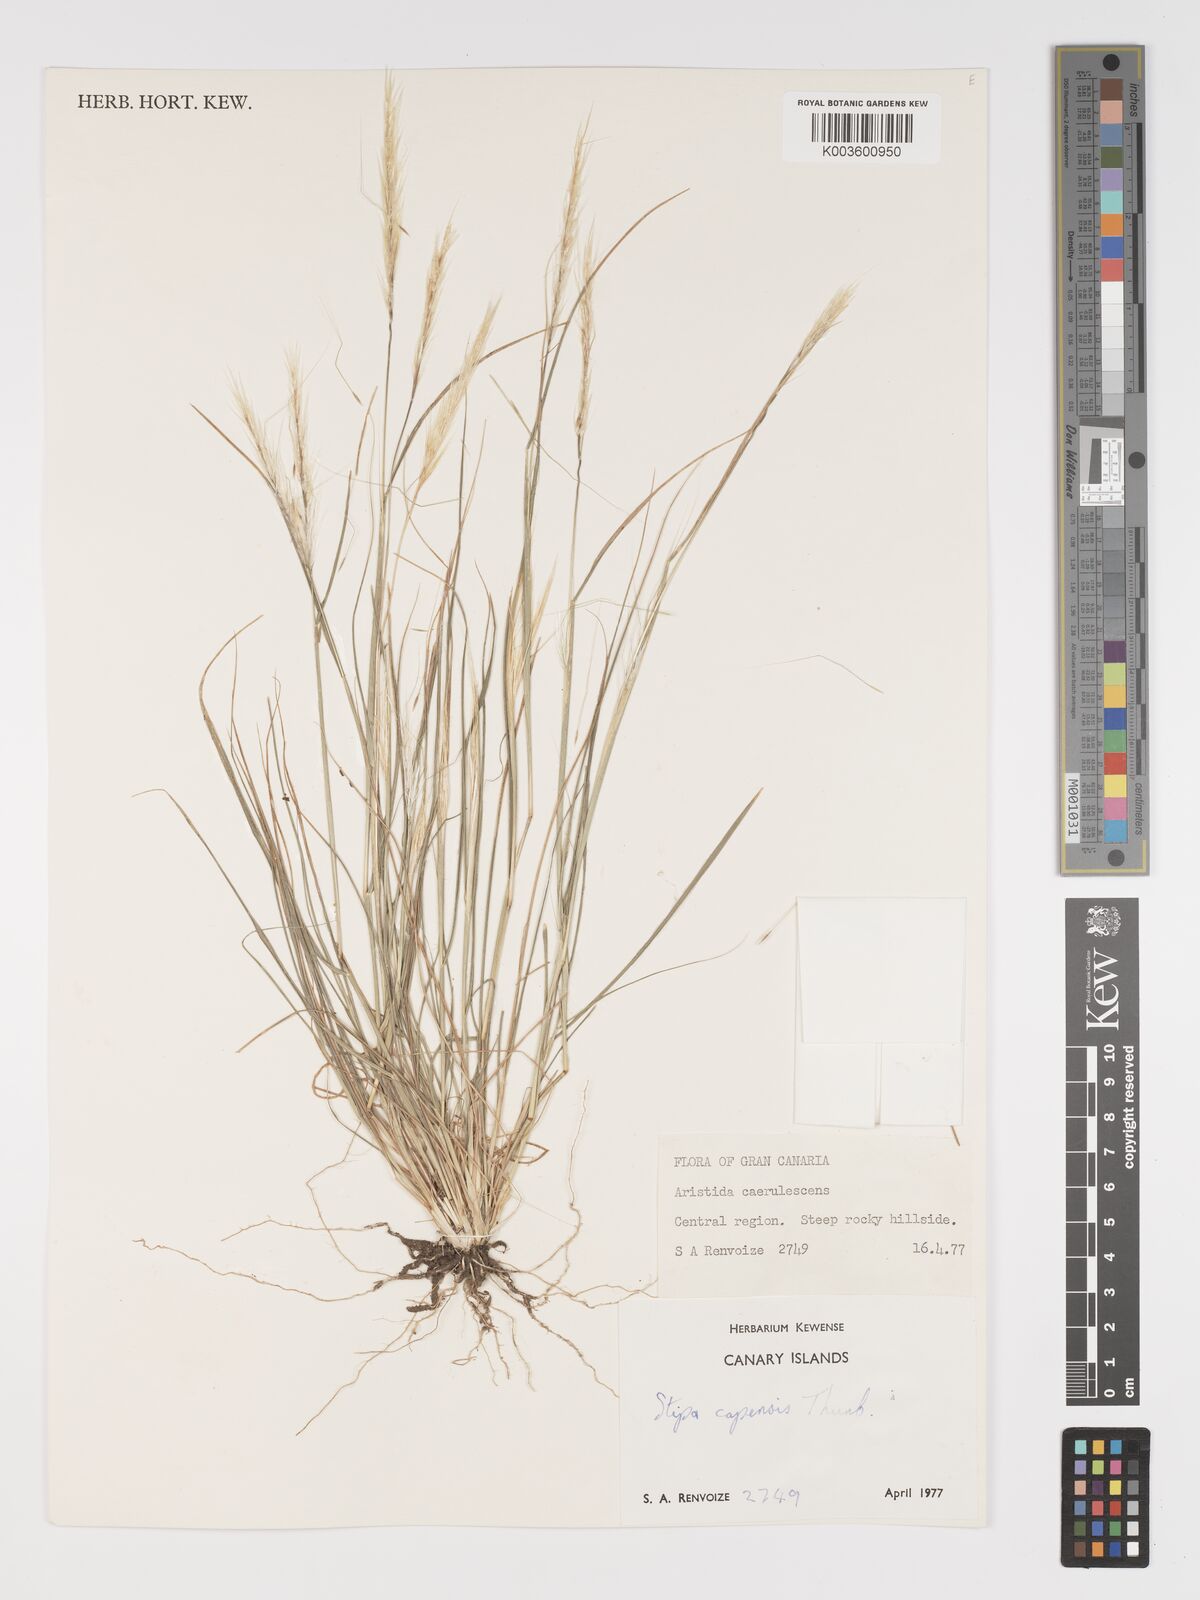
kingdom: Plantae
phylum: Tracheophyta
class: Liliopsida
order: Poales
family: Poaceae
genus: Stipellula
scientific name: Stipellula capensis
